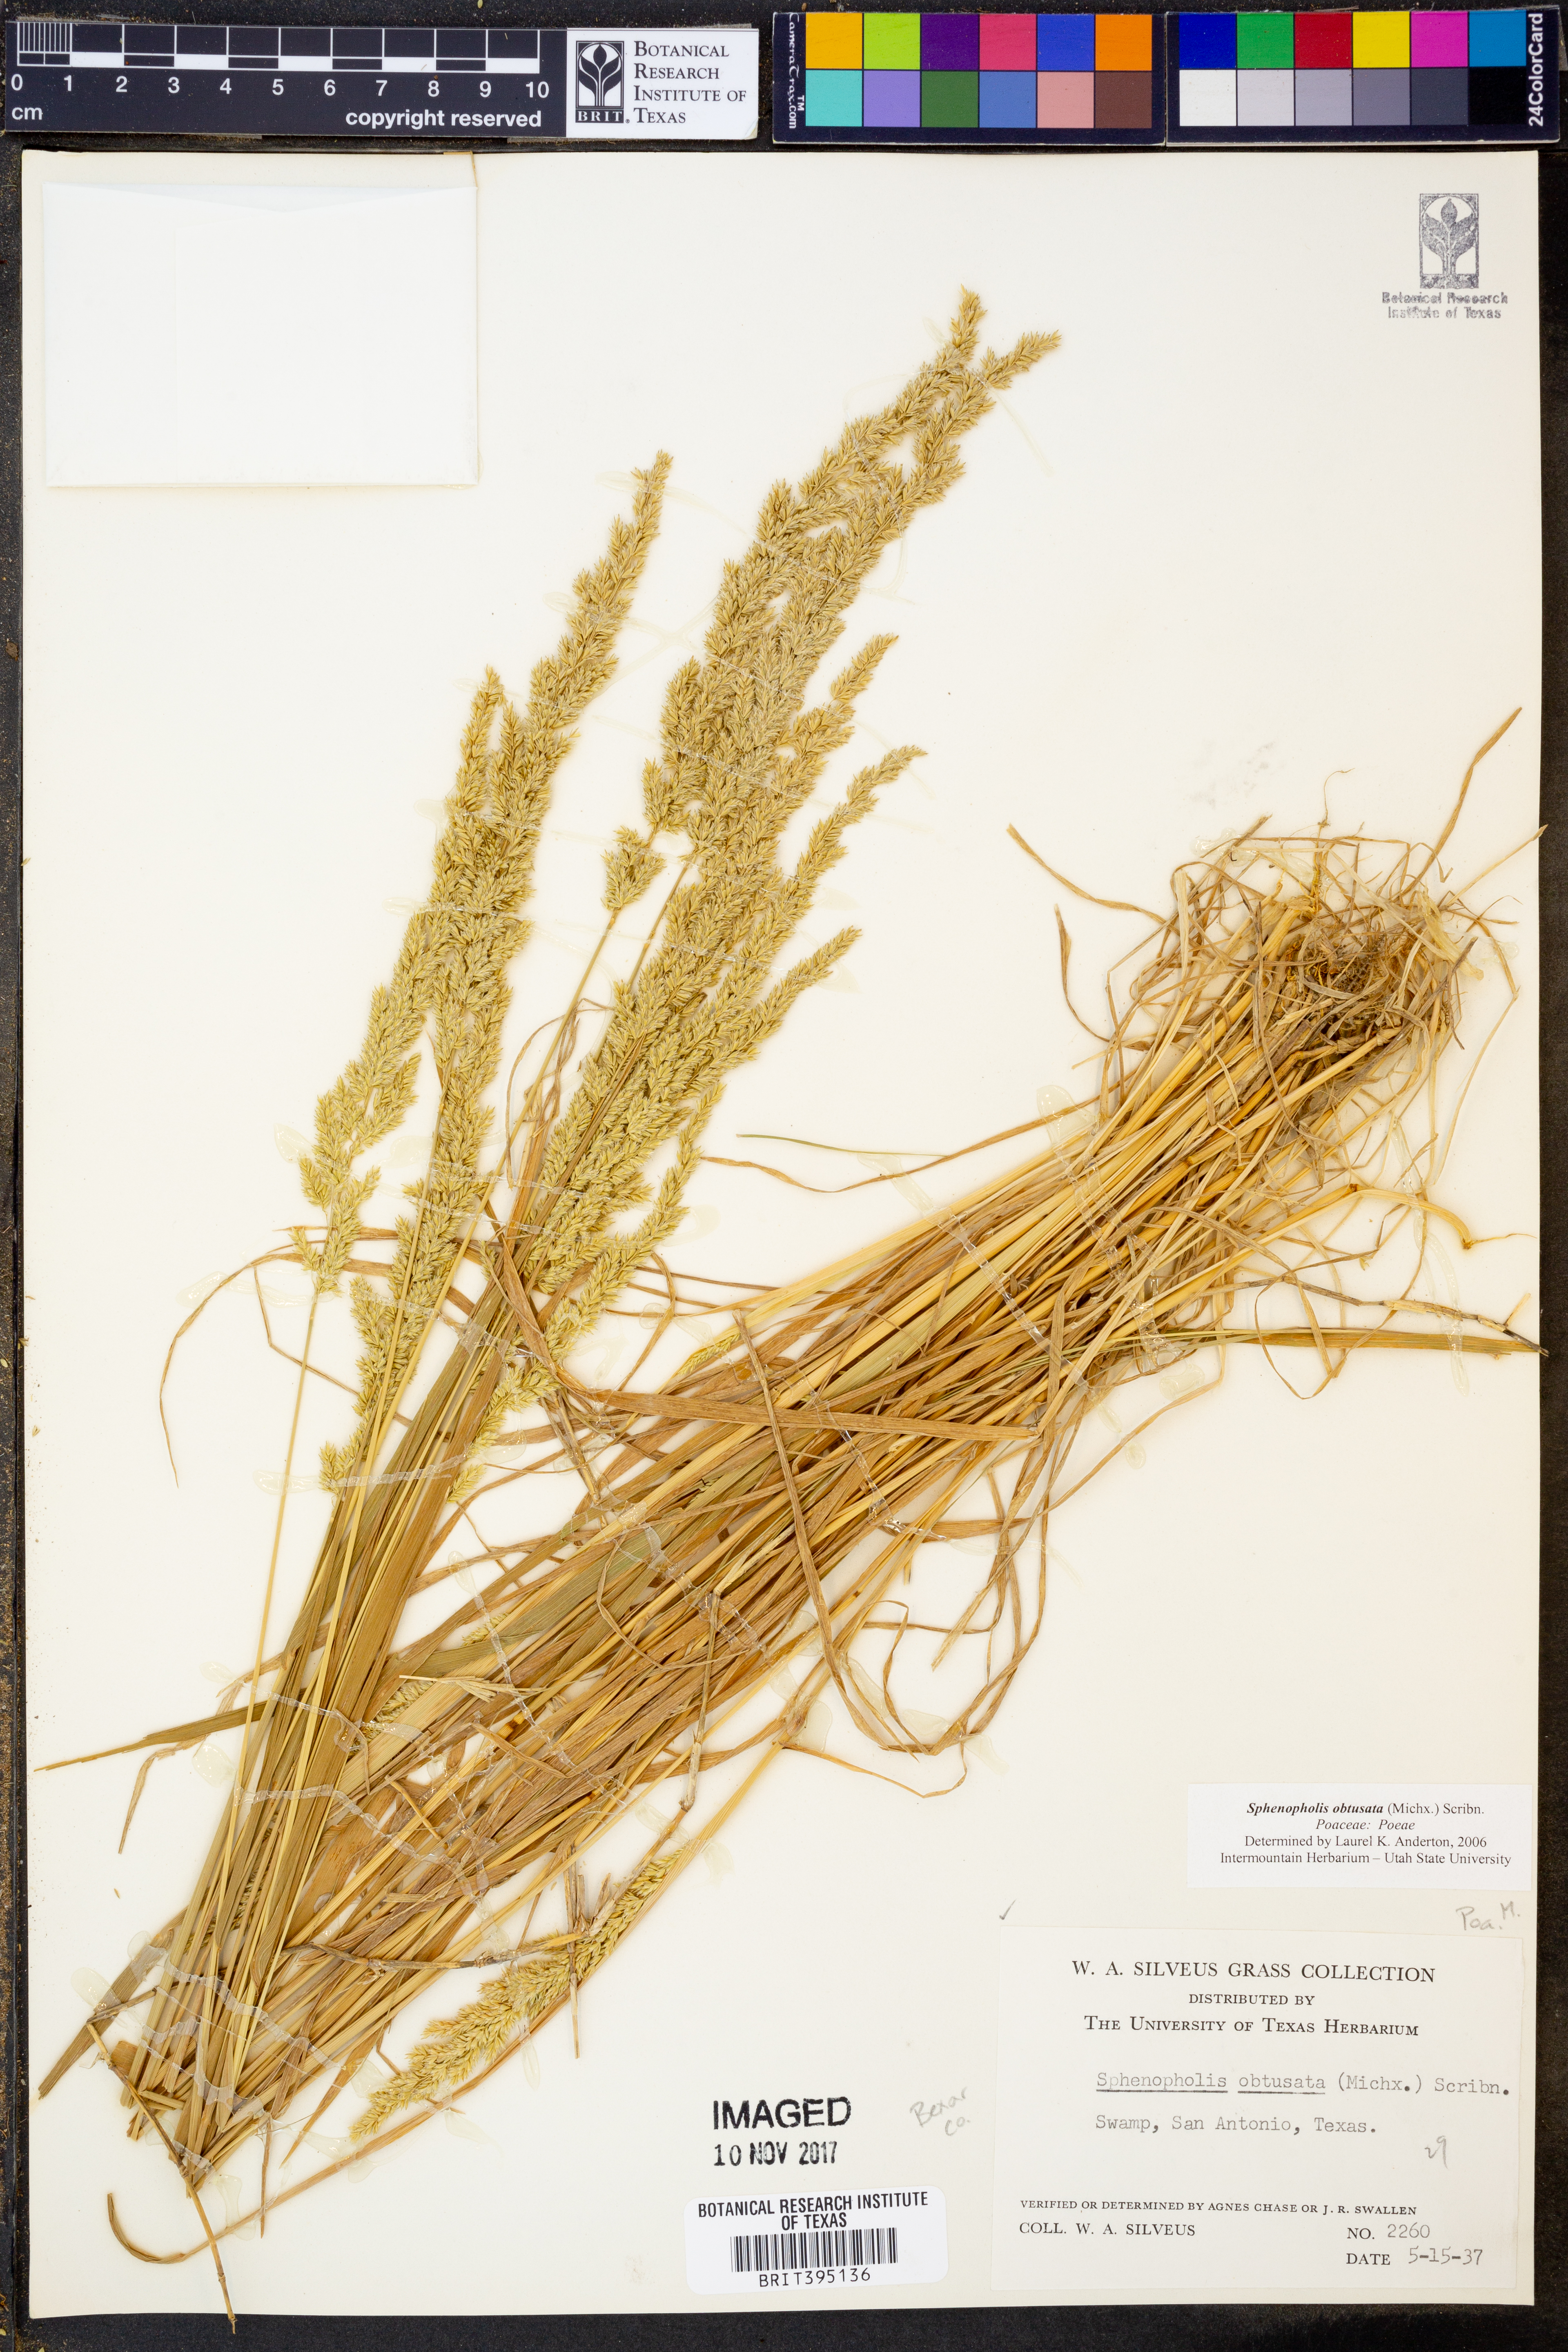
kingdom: Plantae
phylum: Tracheophyta
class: Liliopsida
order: Poales
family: Poaceae
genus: Sphenopholis
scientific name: Sphenopholis obtusata
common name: Prairie grass
